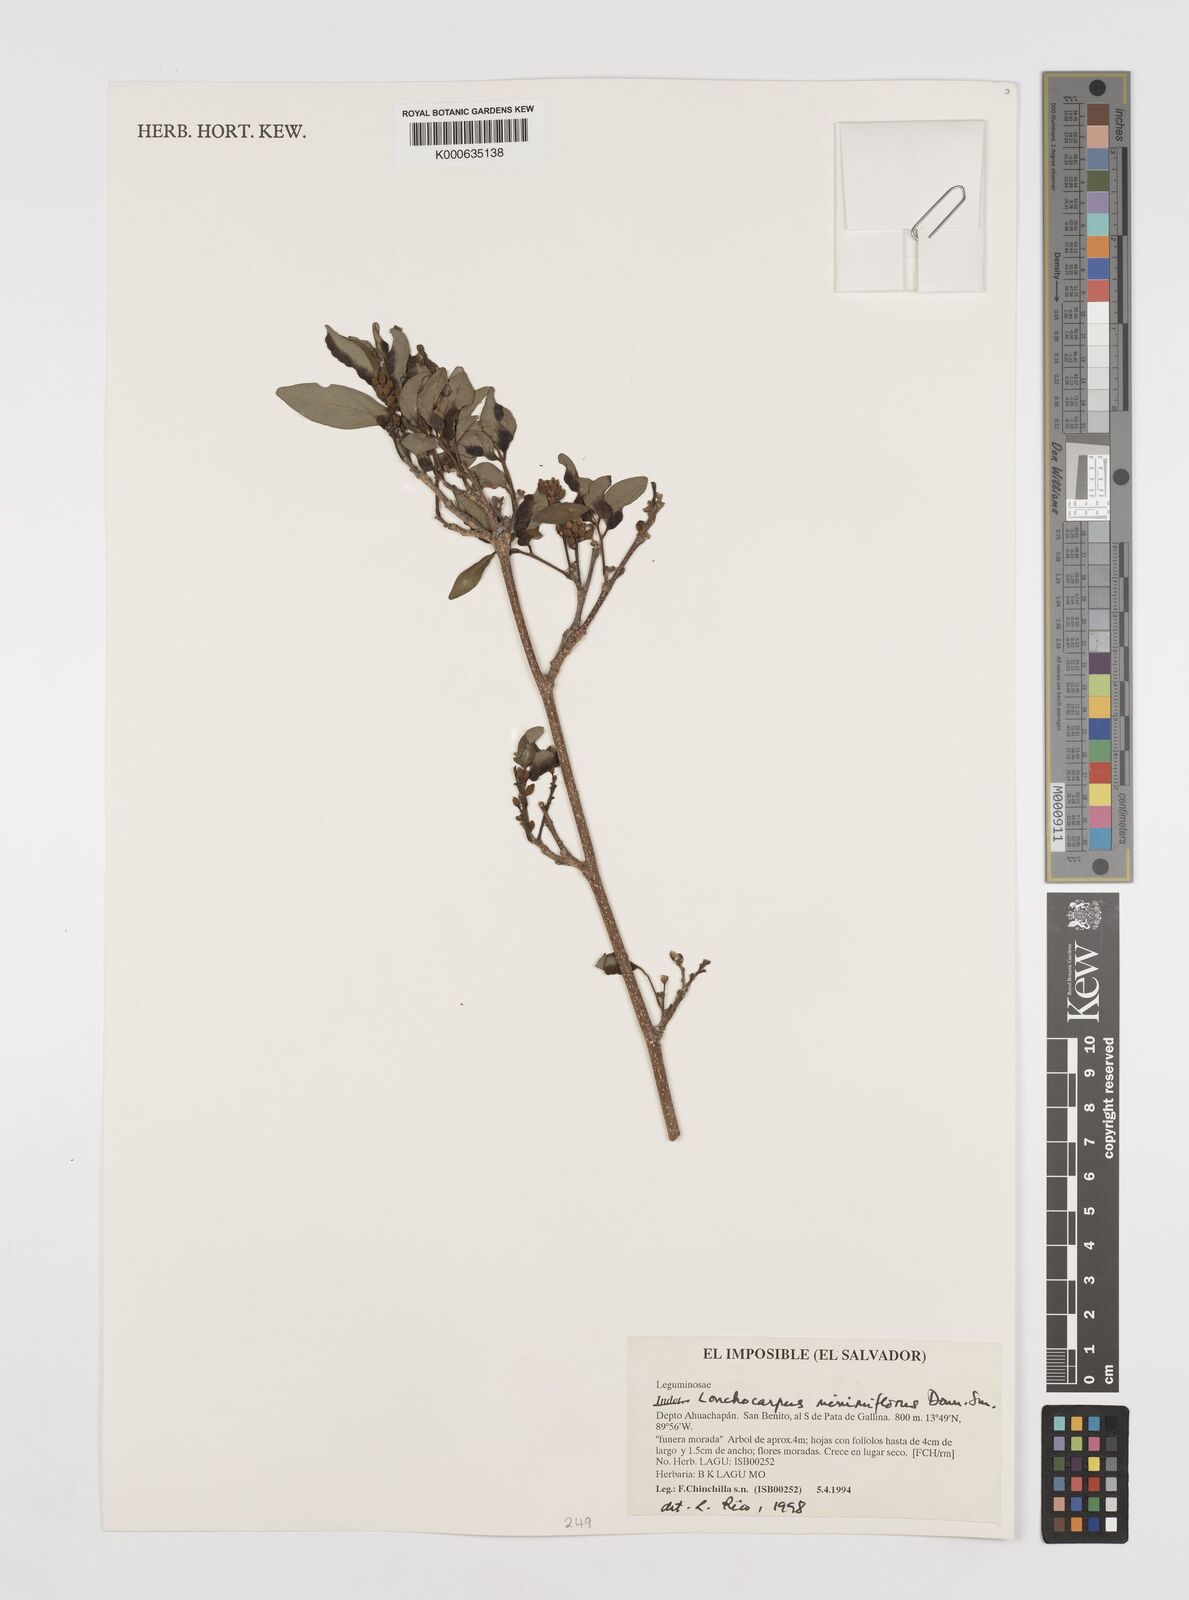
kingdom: Plantae
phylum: Tracheophyta
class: Magnoliopsida
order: Fabales
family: Fabaceae
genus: Lonchocarpus
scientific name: Lonchocarpus minimiflorus
